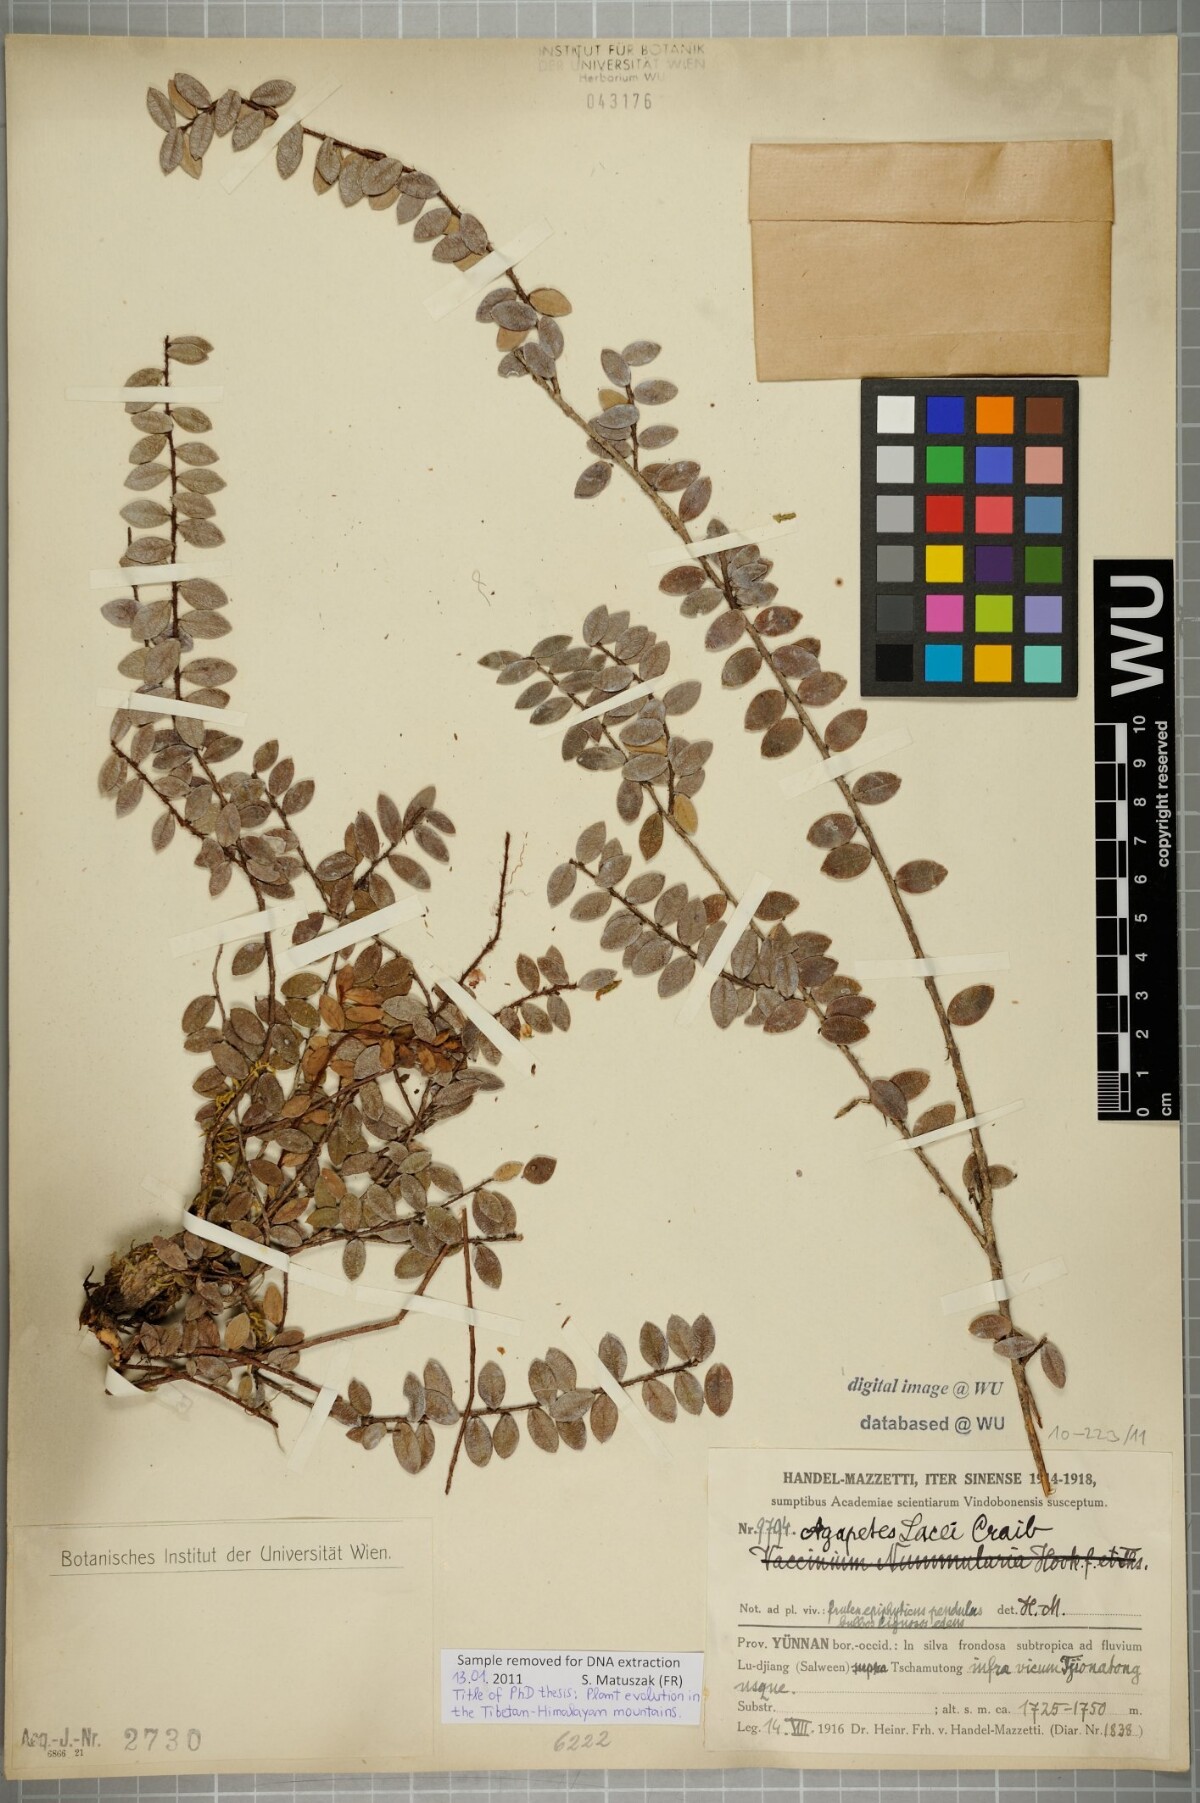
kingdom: Plantae
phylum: Tracheophyta
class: Magnoliopsida
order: Ericales
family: Ericaceae
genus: Agapetes
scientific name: Agapetes lacei
